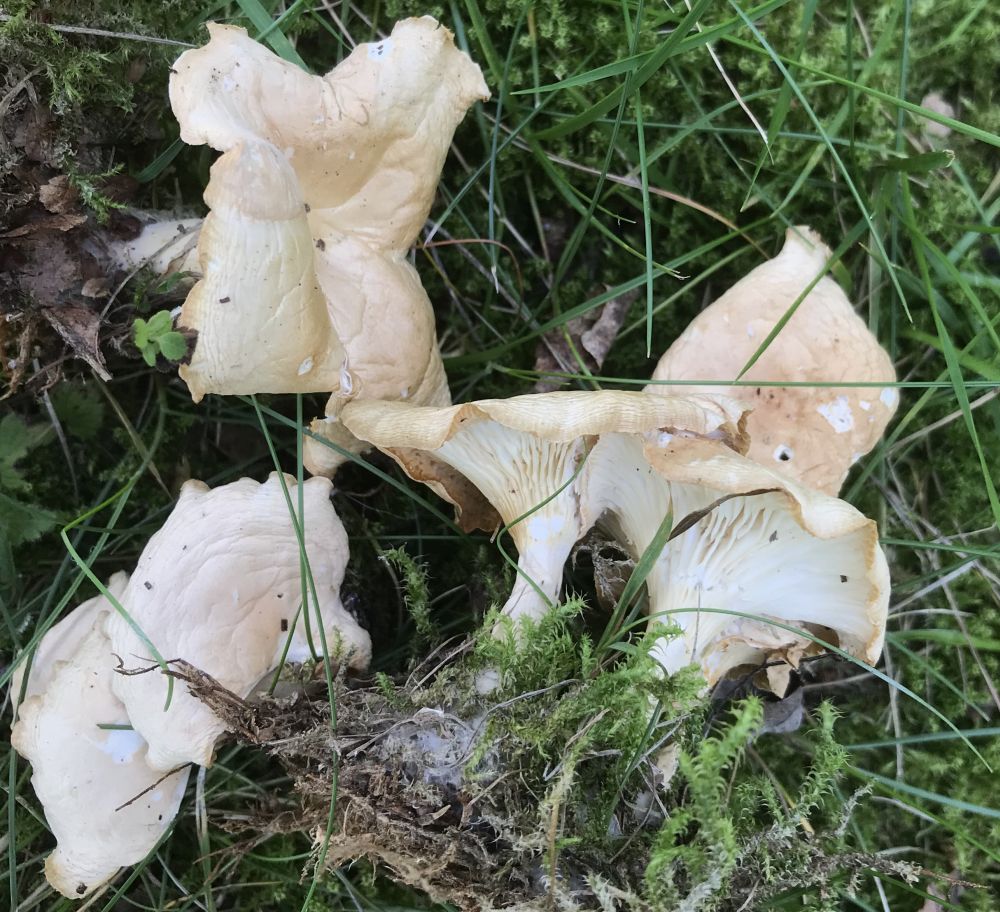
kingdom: Fungi
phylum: Basidiomycota
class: Agaricomycetes
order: Agaricales
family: Tricholomataceae
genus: Infundibulicybe
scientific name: Infundibulicybe gibba
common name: almindelig tragthat
